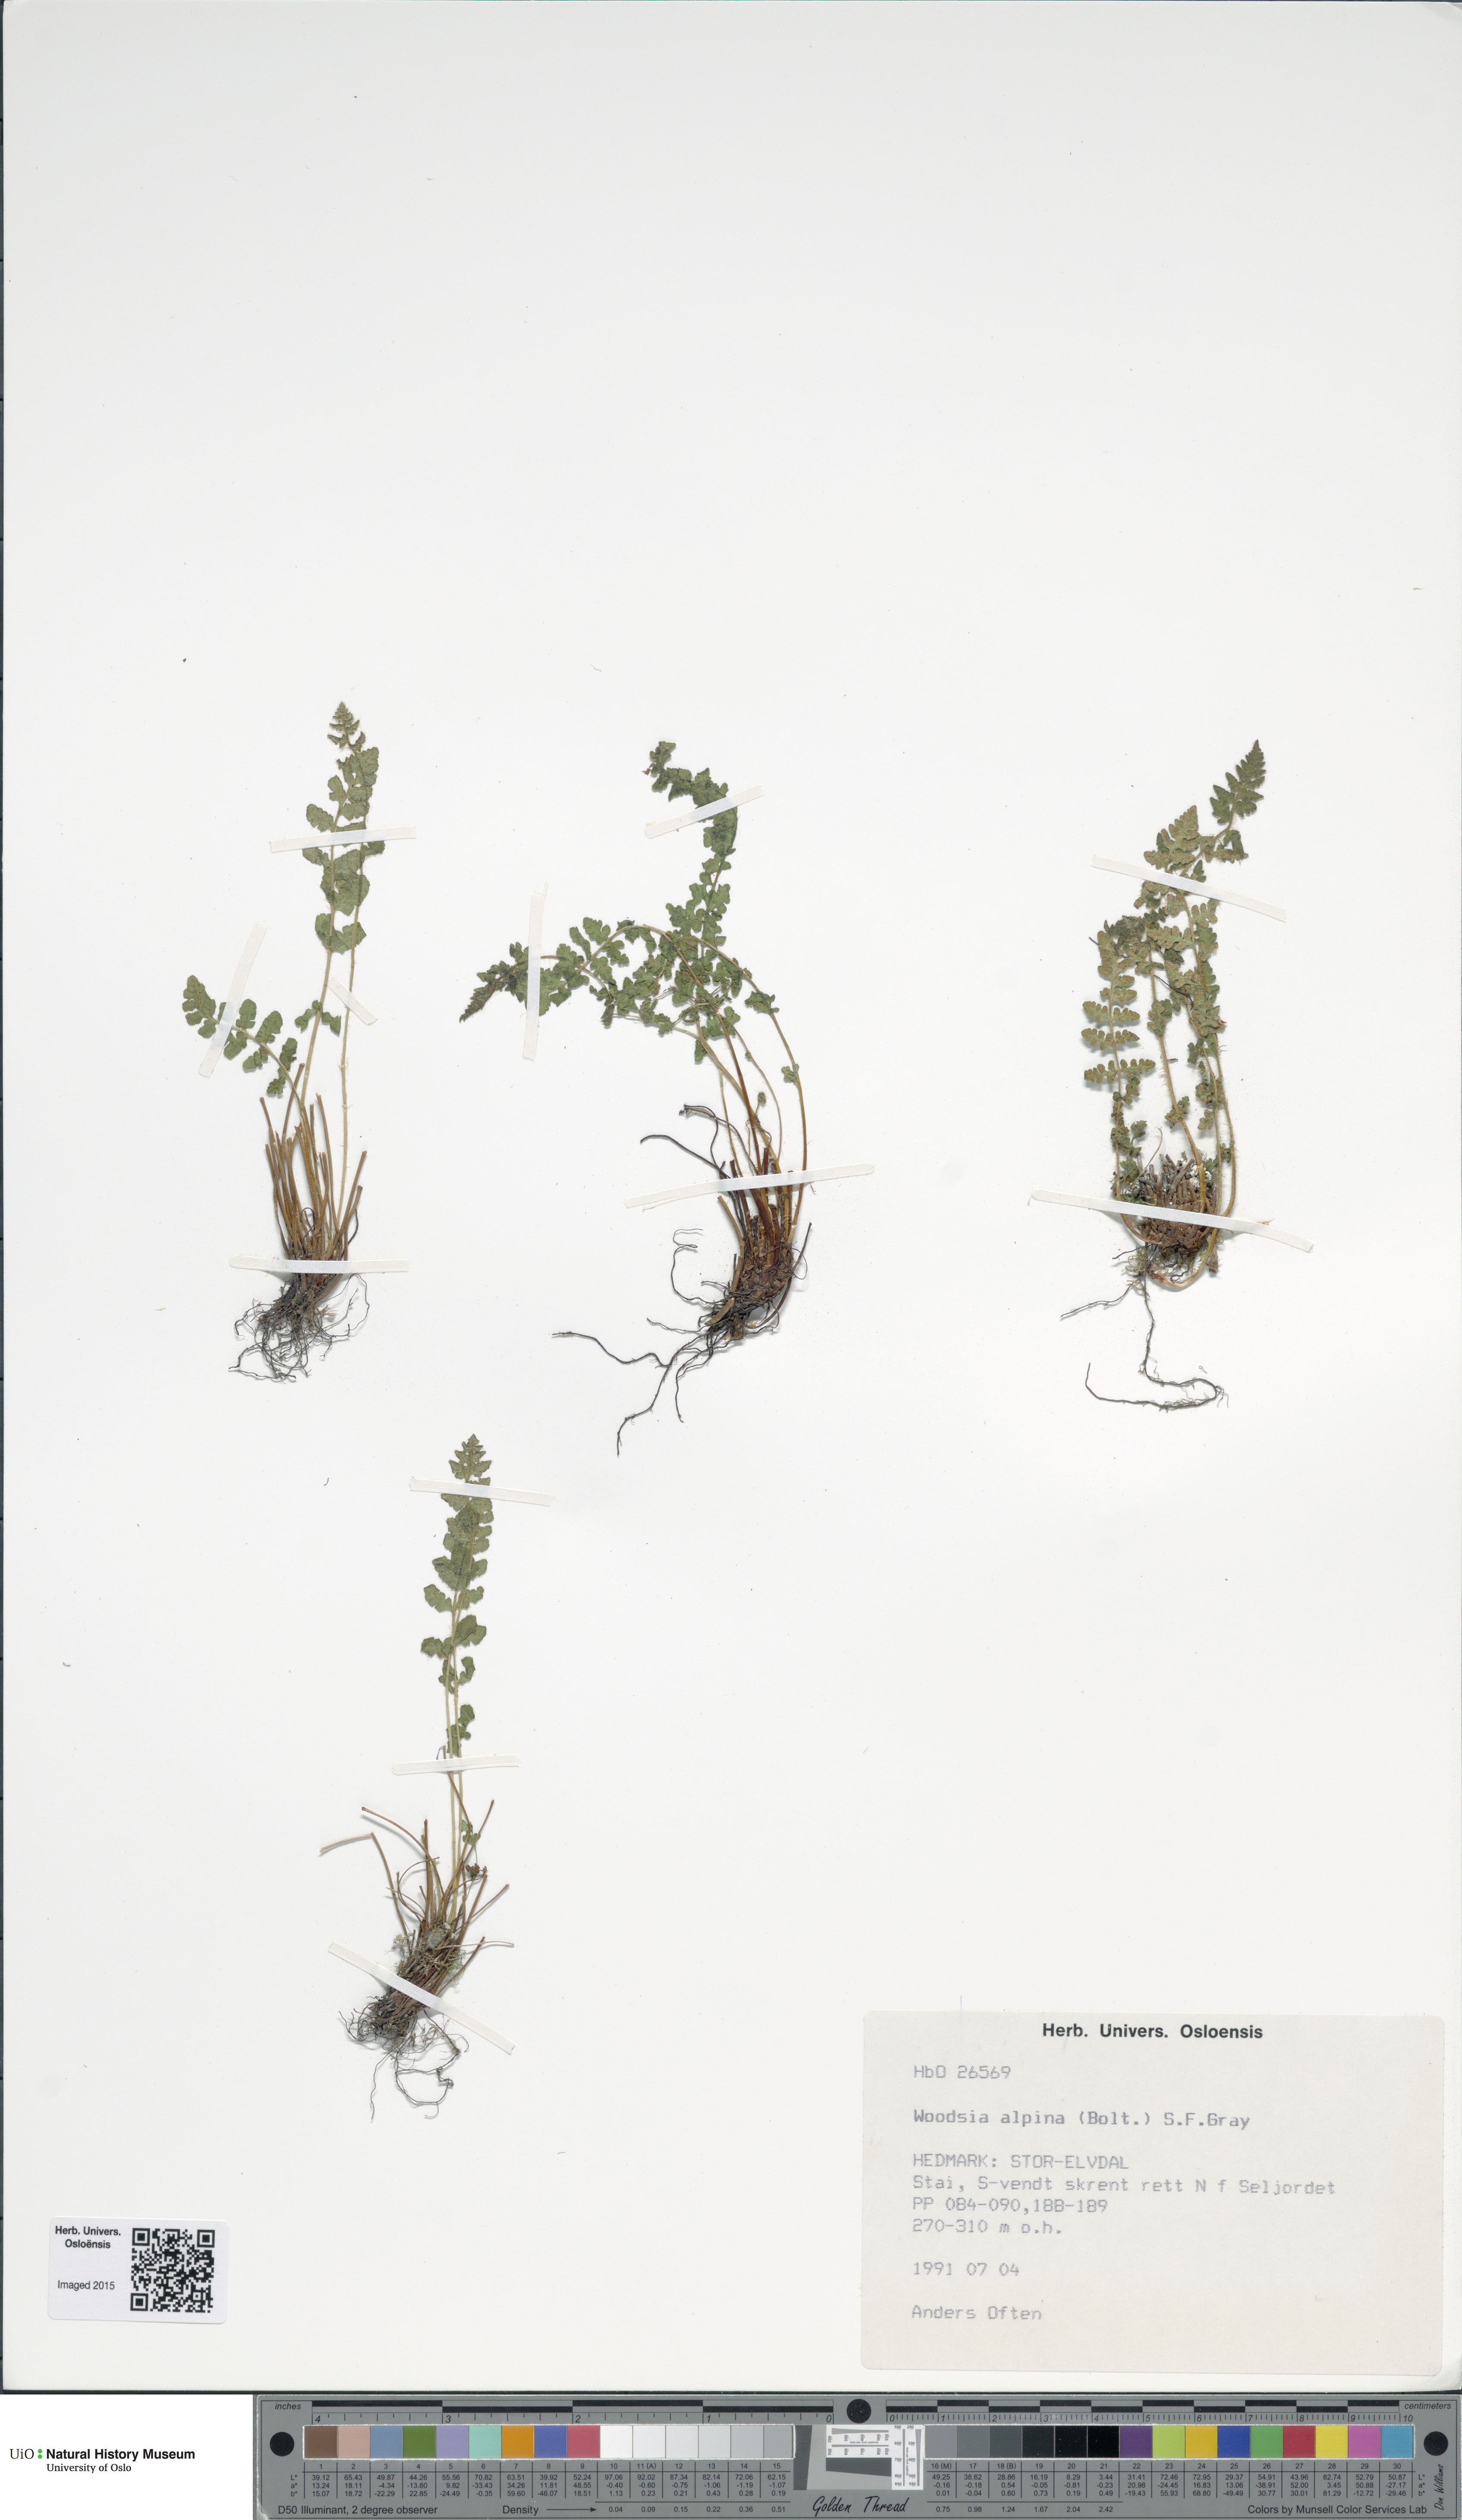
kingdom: Plantae
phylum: Tracheophyta
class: Polypodiopsida
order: Polypodiales
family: Woodsiaceae
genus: Woodsia
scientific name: Woodsia alpina
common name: Alpine woodsia
